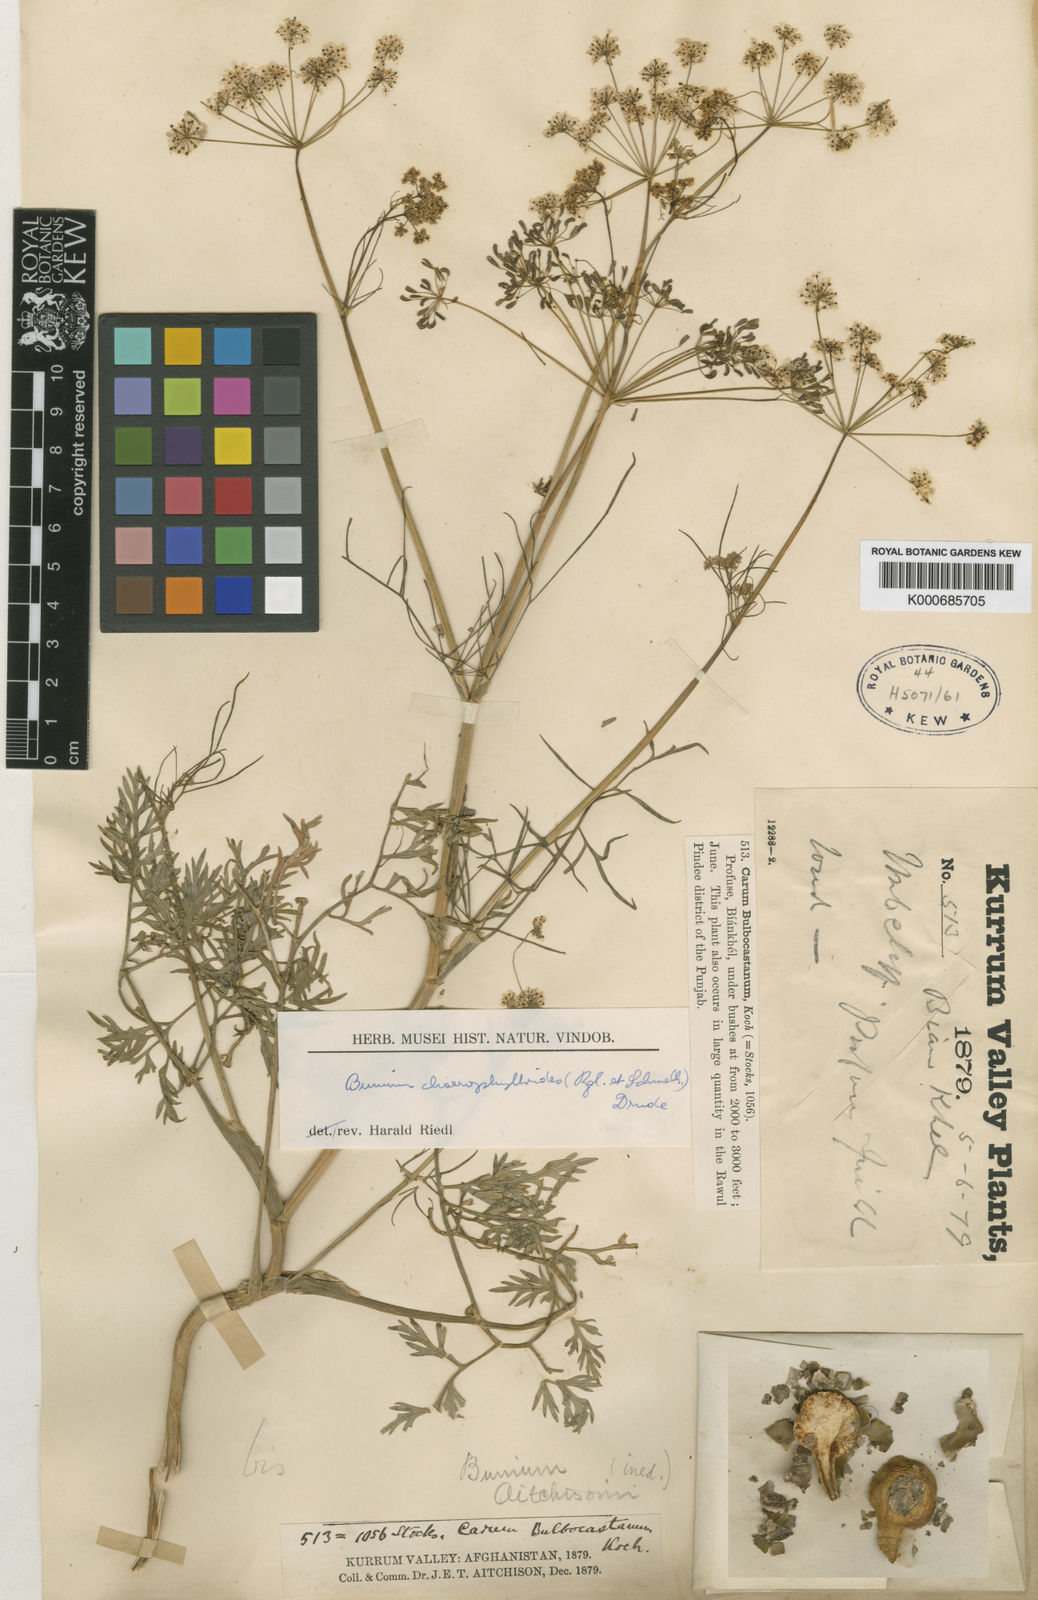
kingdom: Plantae
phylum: Tracheophyta
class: Magnoliopsida
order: Apiales
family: Apiaceae
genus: Bunium
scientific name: Bunium
